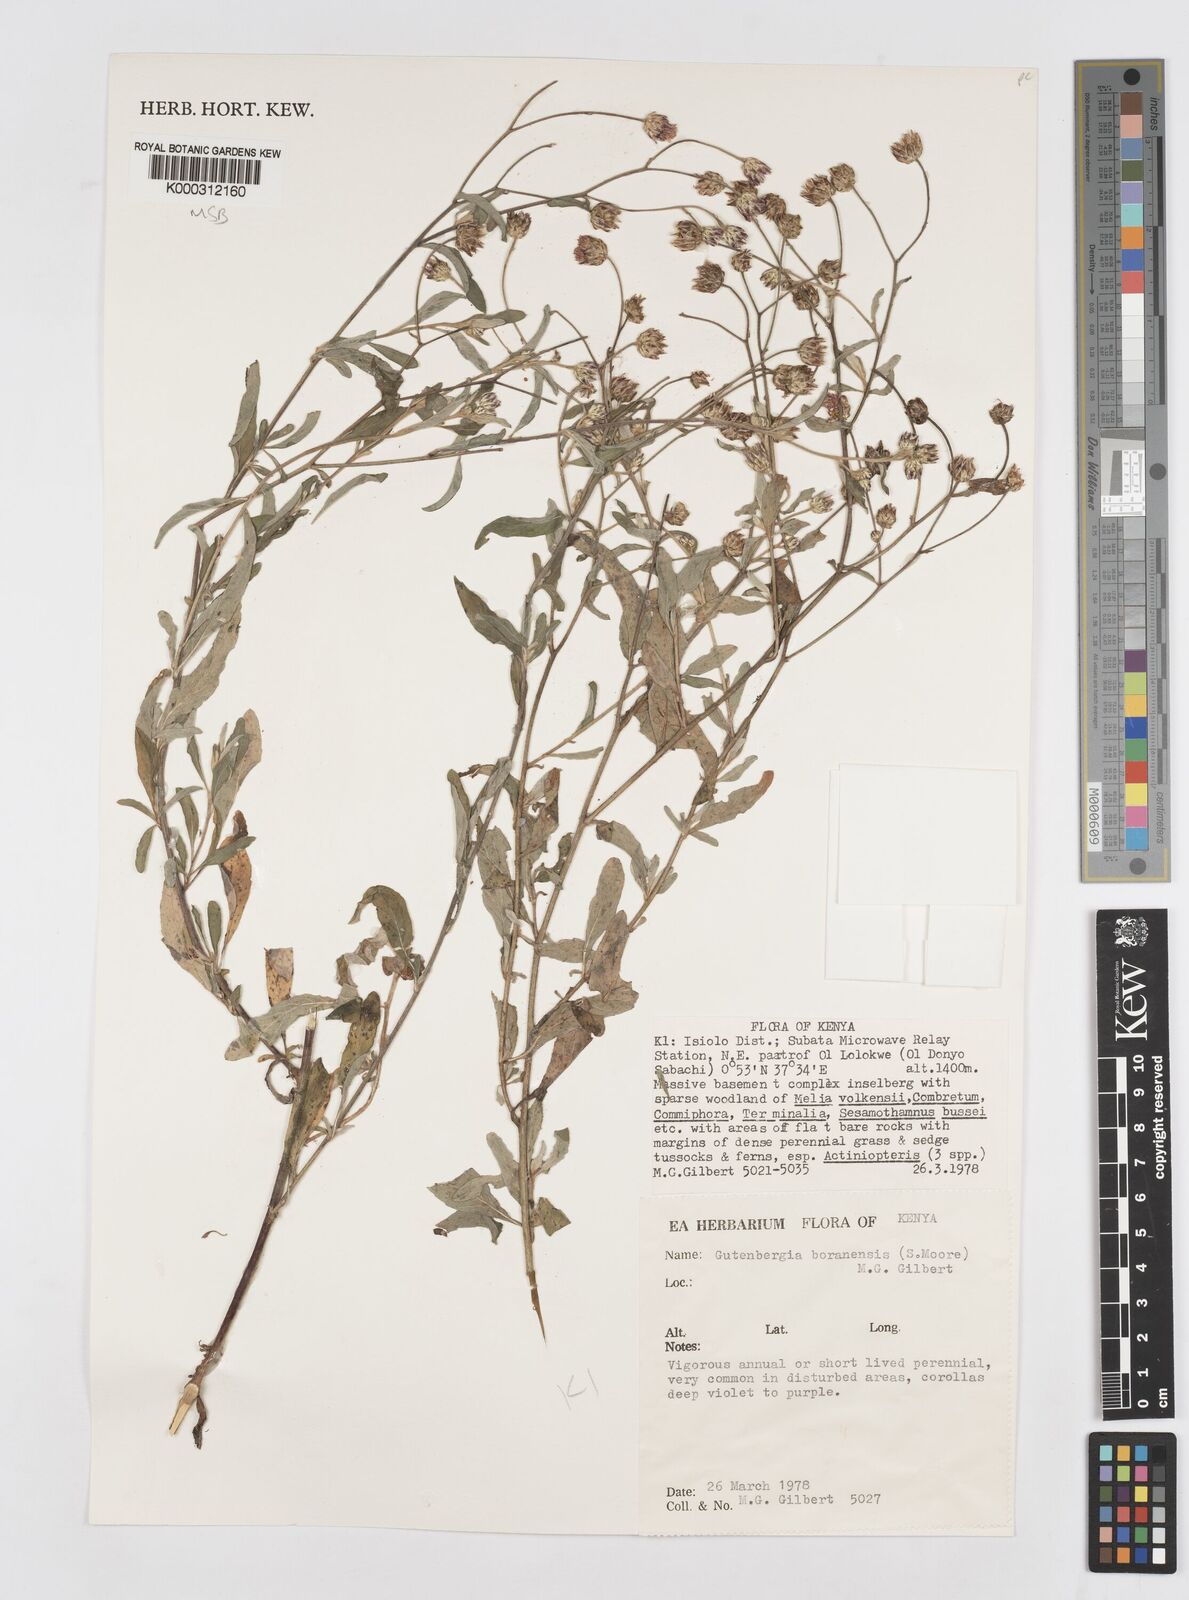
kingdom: Plantae
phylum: Tracheophyta
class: Magnoliopsida
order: Asterales
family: Asteraceae
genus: Gutenbergia
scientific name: Gutenbergia boranensis
